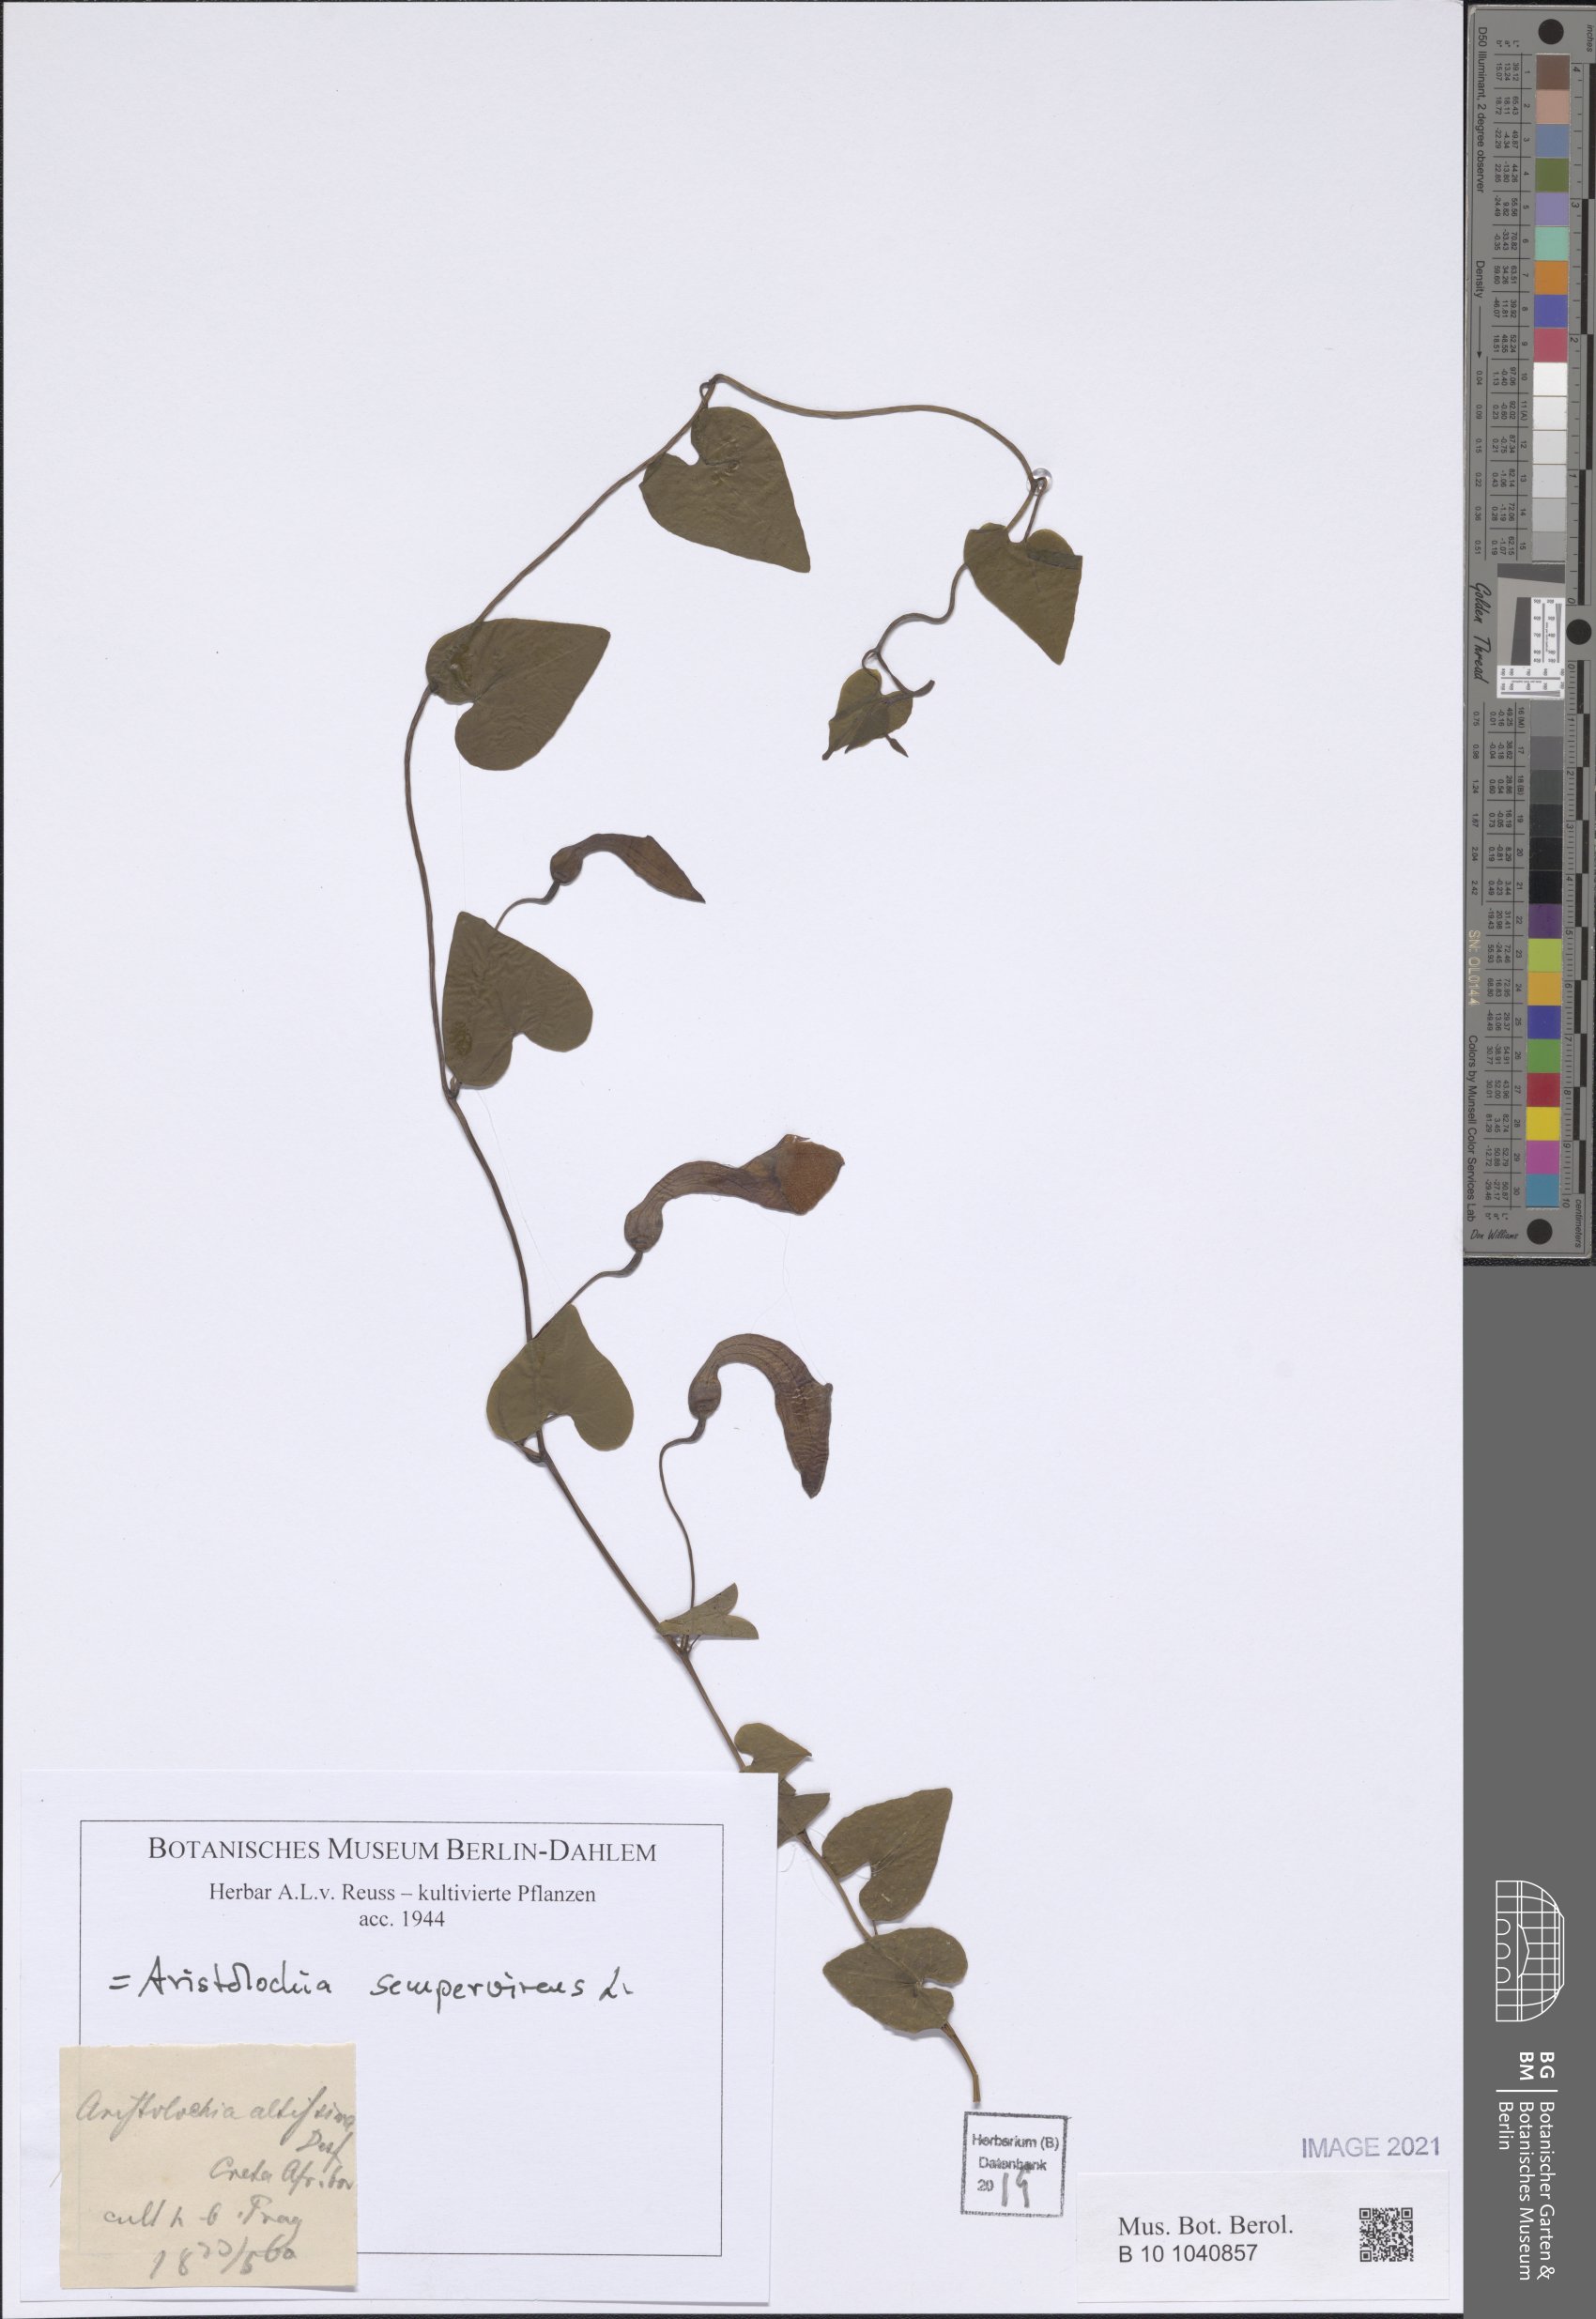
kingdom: Plantae
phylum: Tracheophyta
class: Magnoliopsida
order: Piperales
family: Aristolochiaceae
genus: Aristolochia
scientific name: Aristolochia sempervirens
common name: Long birthwort
